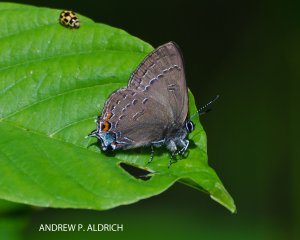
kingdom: Animalia
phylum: Arthropoda
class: Insecta
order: Lepidoptera
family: Lycaenidae
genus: Satyrium
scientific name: Satyrium calanus
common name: Banded Hairstreak
